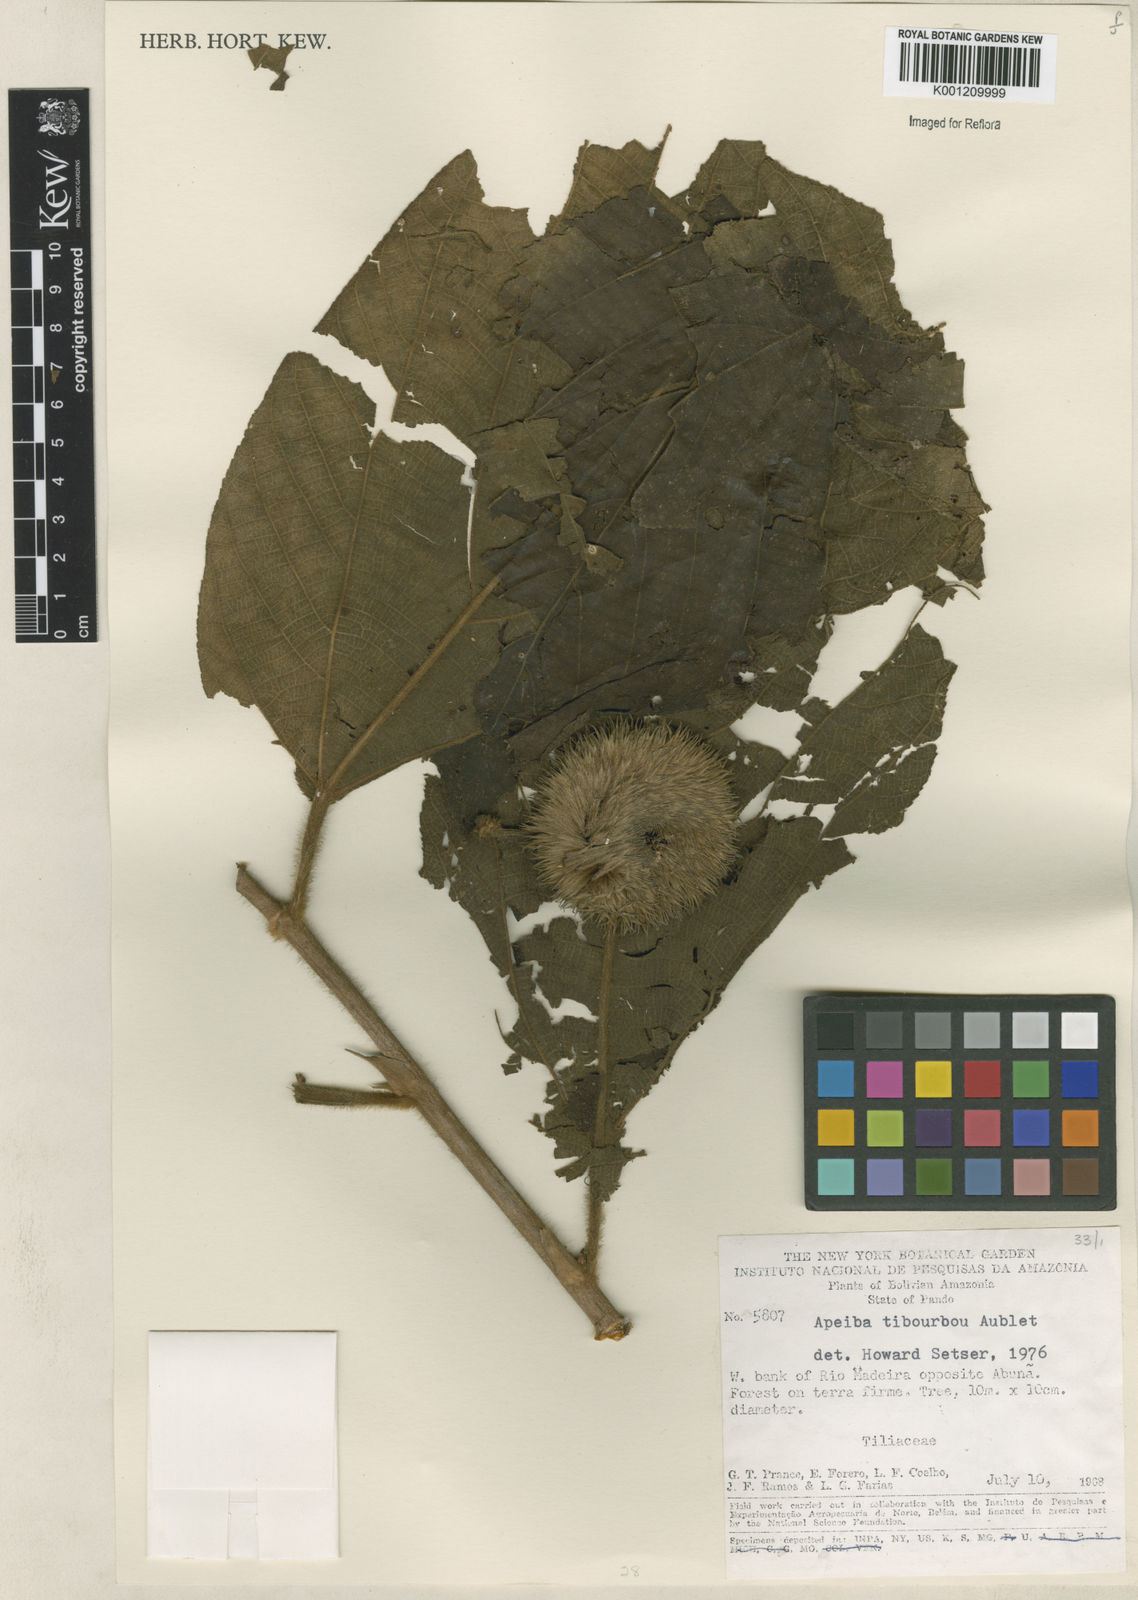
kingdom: Plantae
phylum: Tracheophyta
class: Magnoliopsida
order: Malvales
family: Malvaceae
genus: Apeiba
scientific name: Apeiba tibourbou
